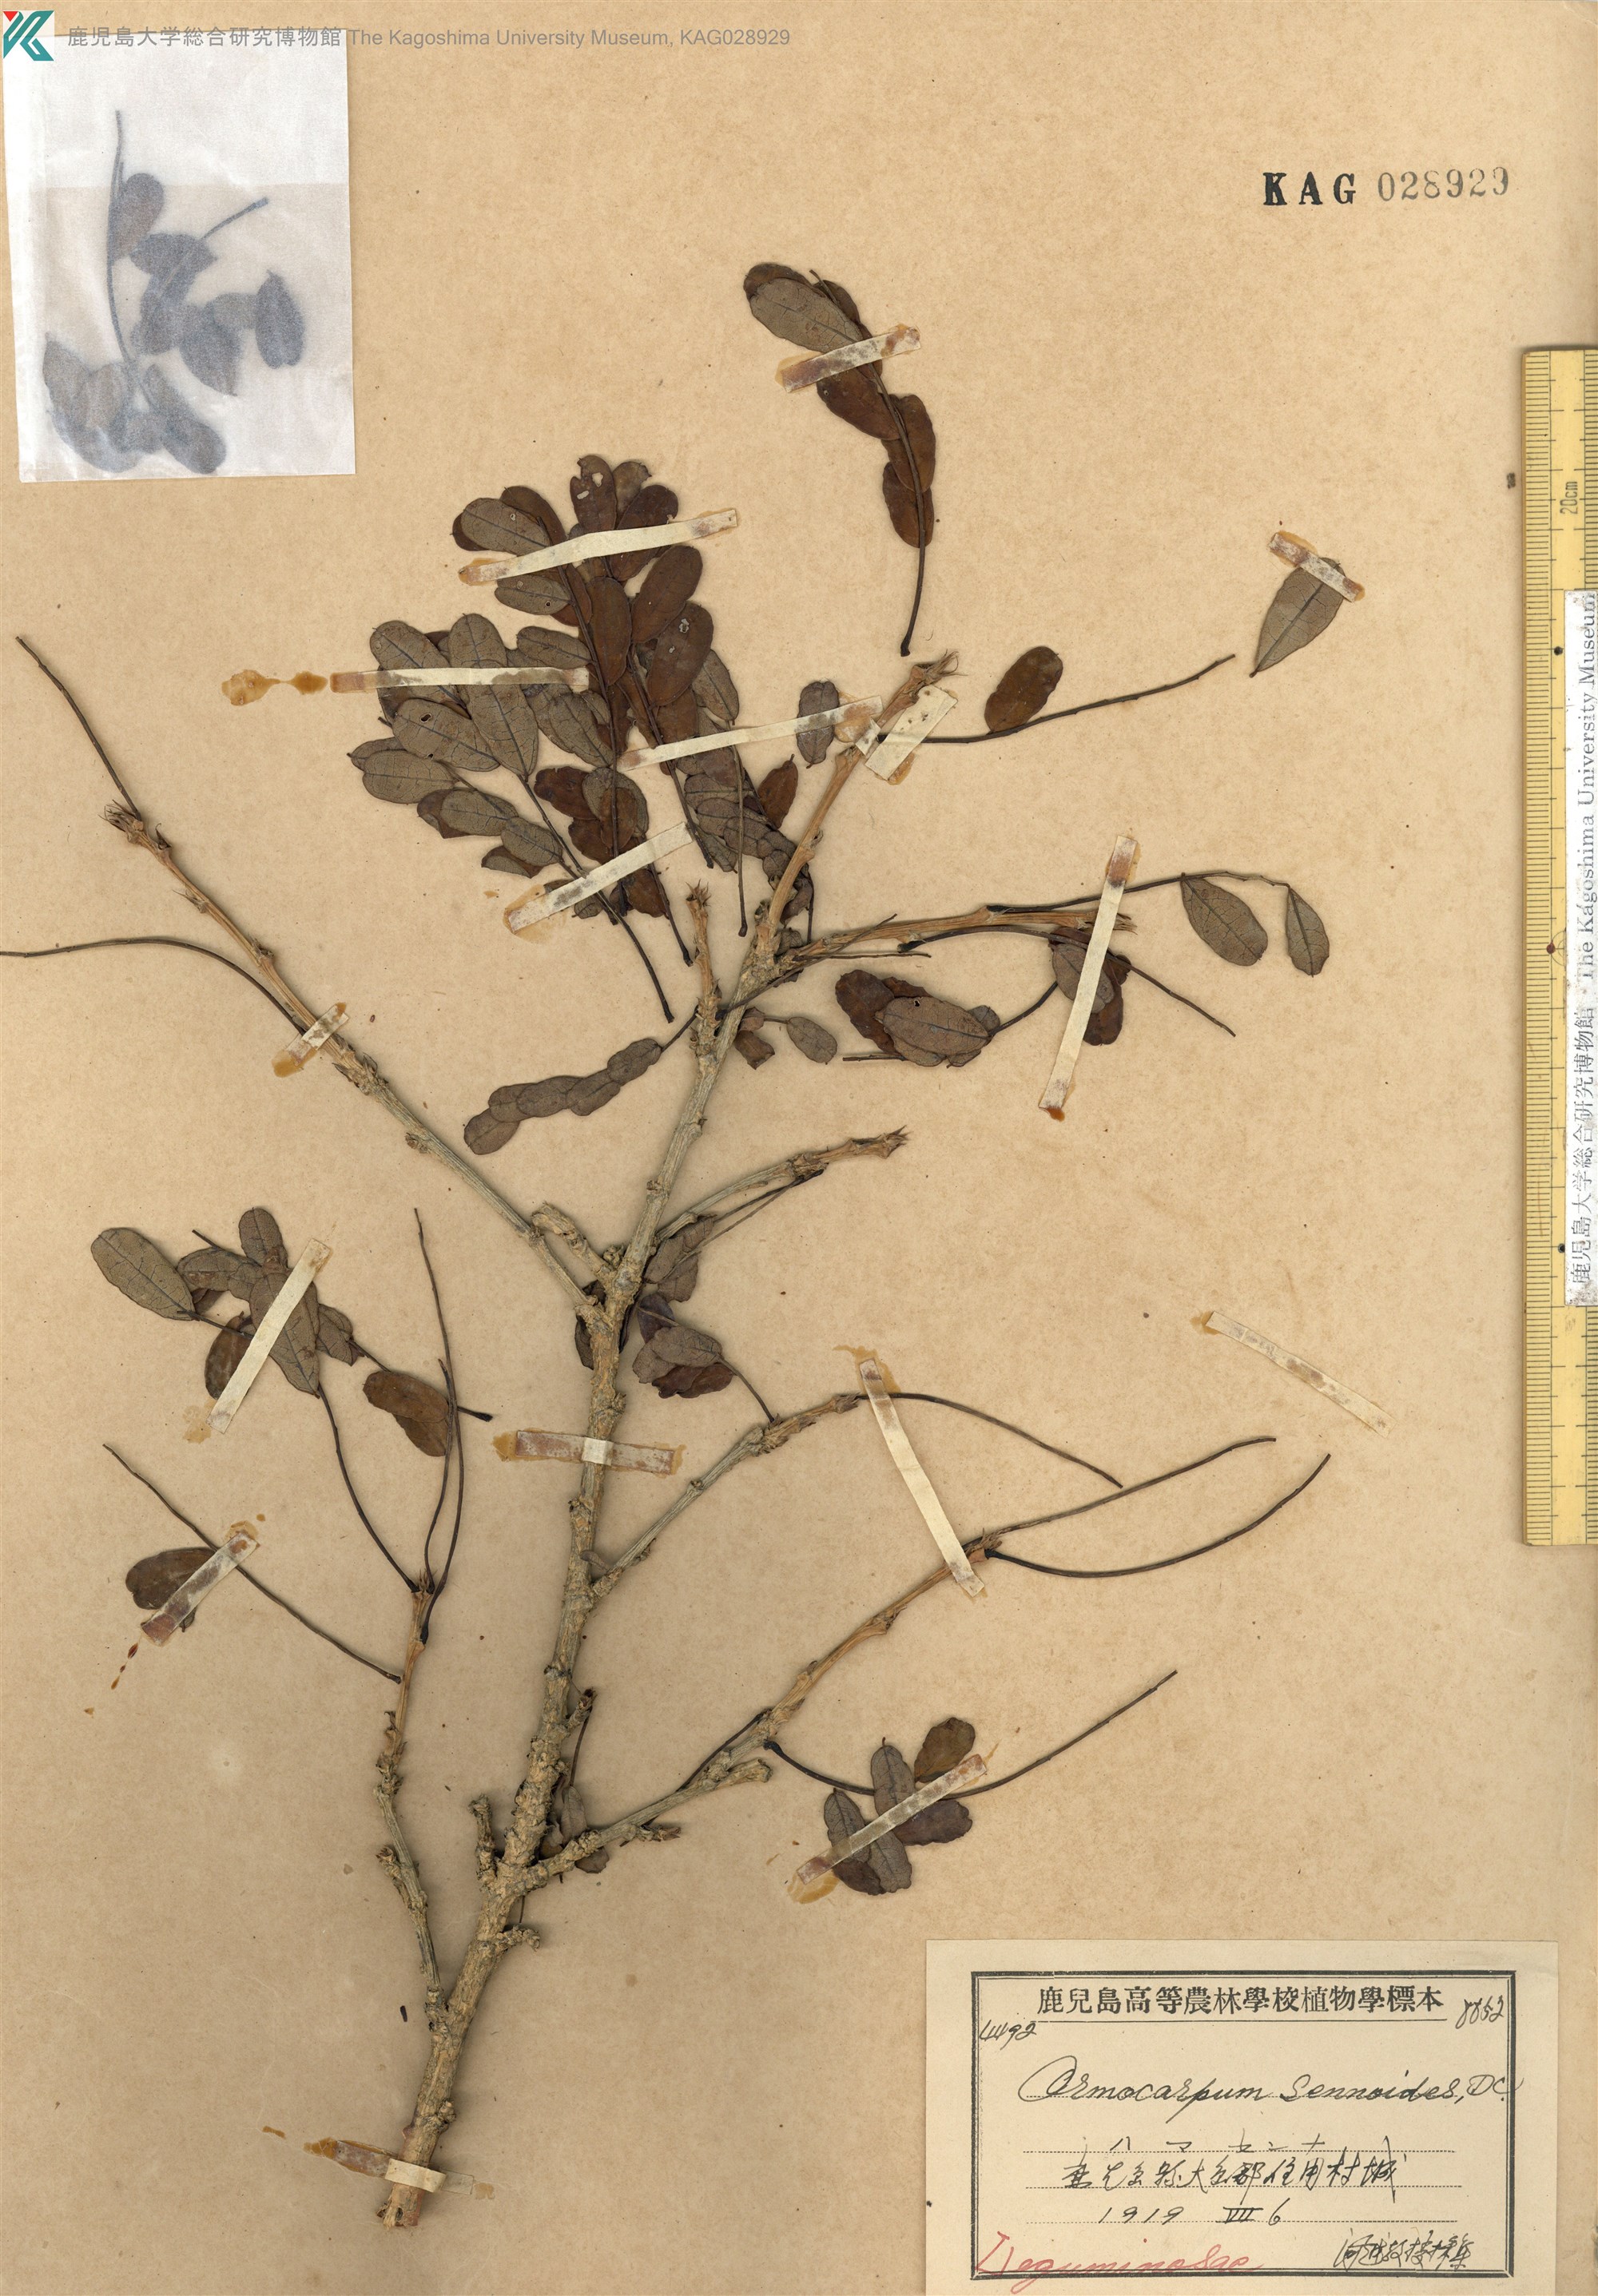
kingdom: Plantae
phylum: Tracheophyta
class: Magnoliopsida
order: Fabales
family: Fabaceae
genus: Ormocarpum
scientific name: Ormocarpum cochinchinense
